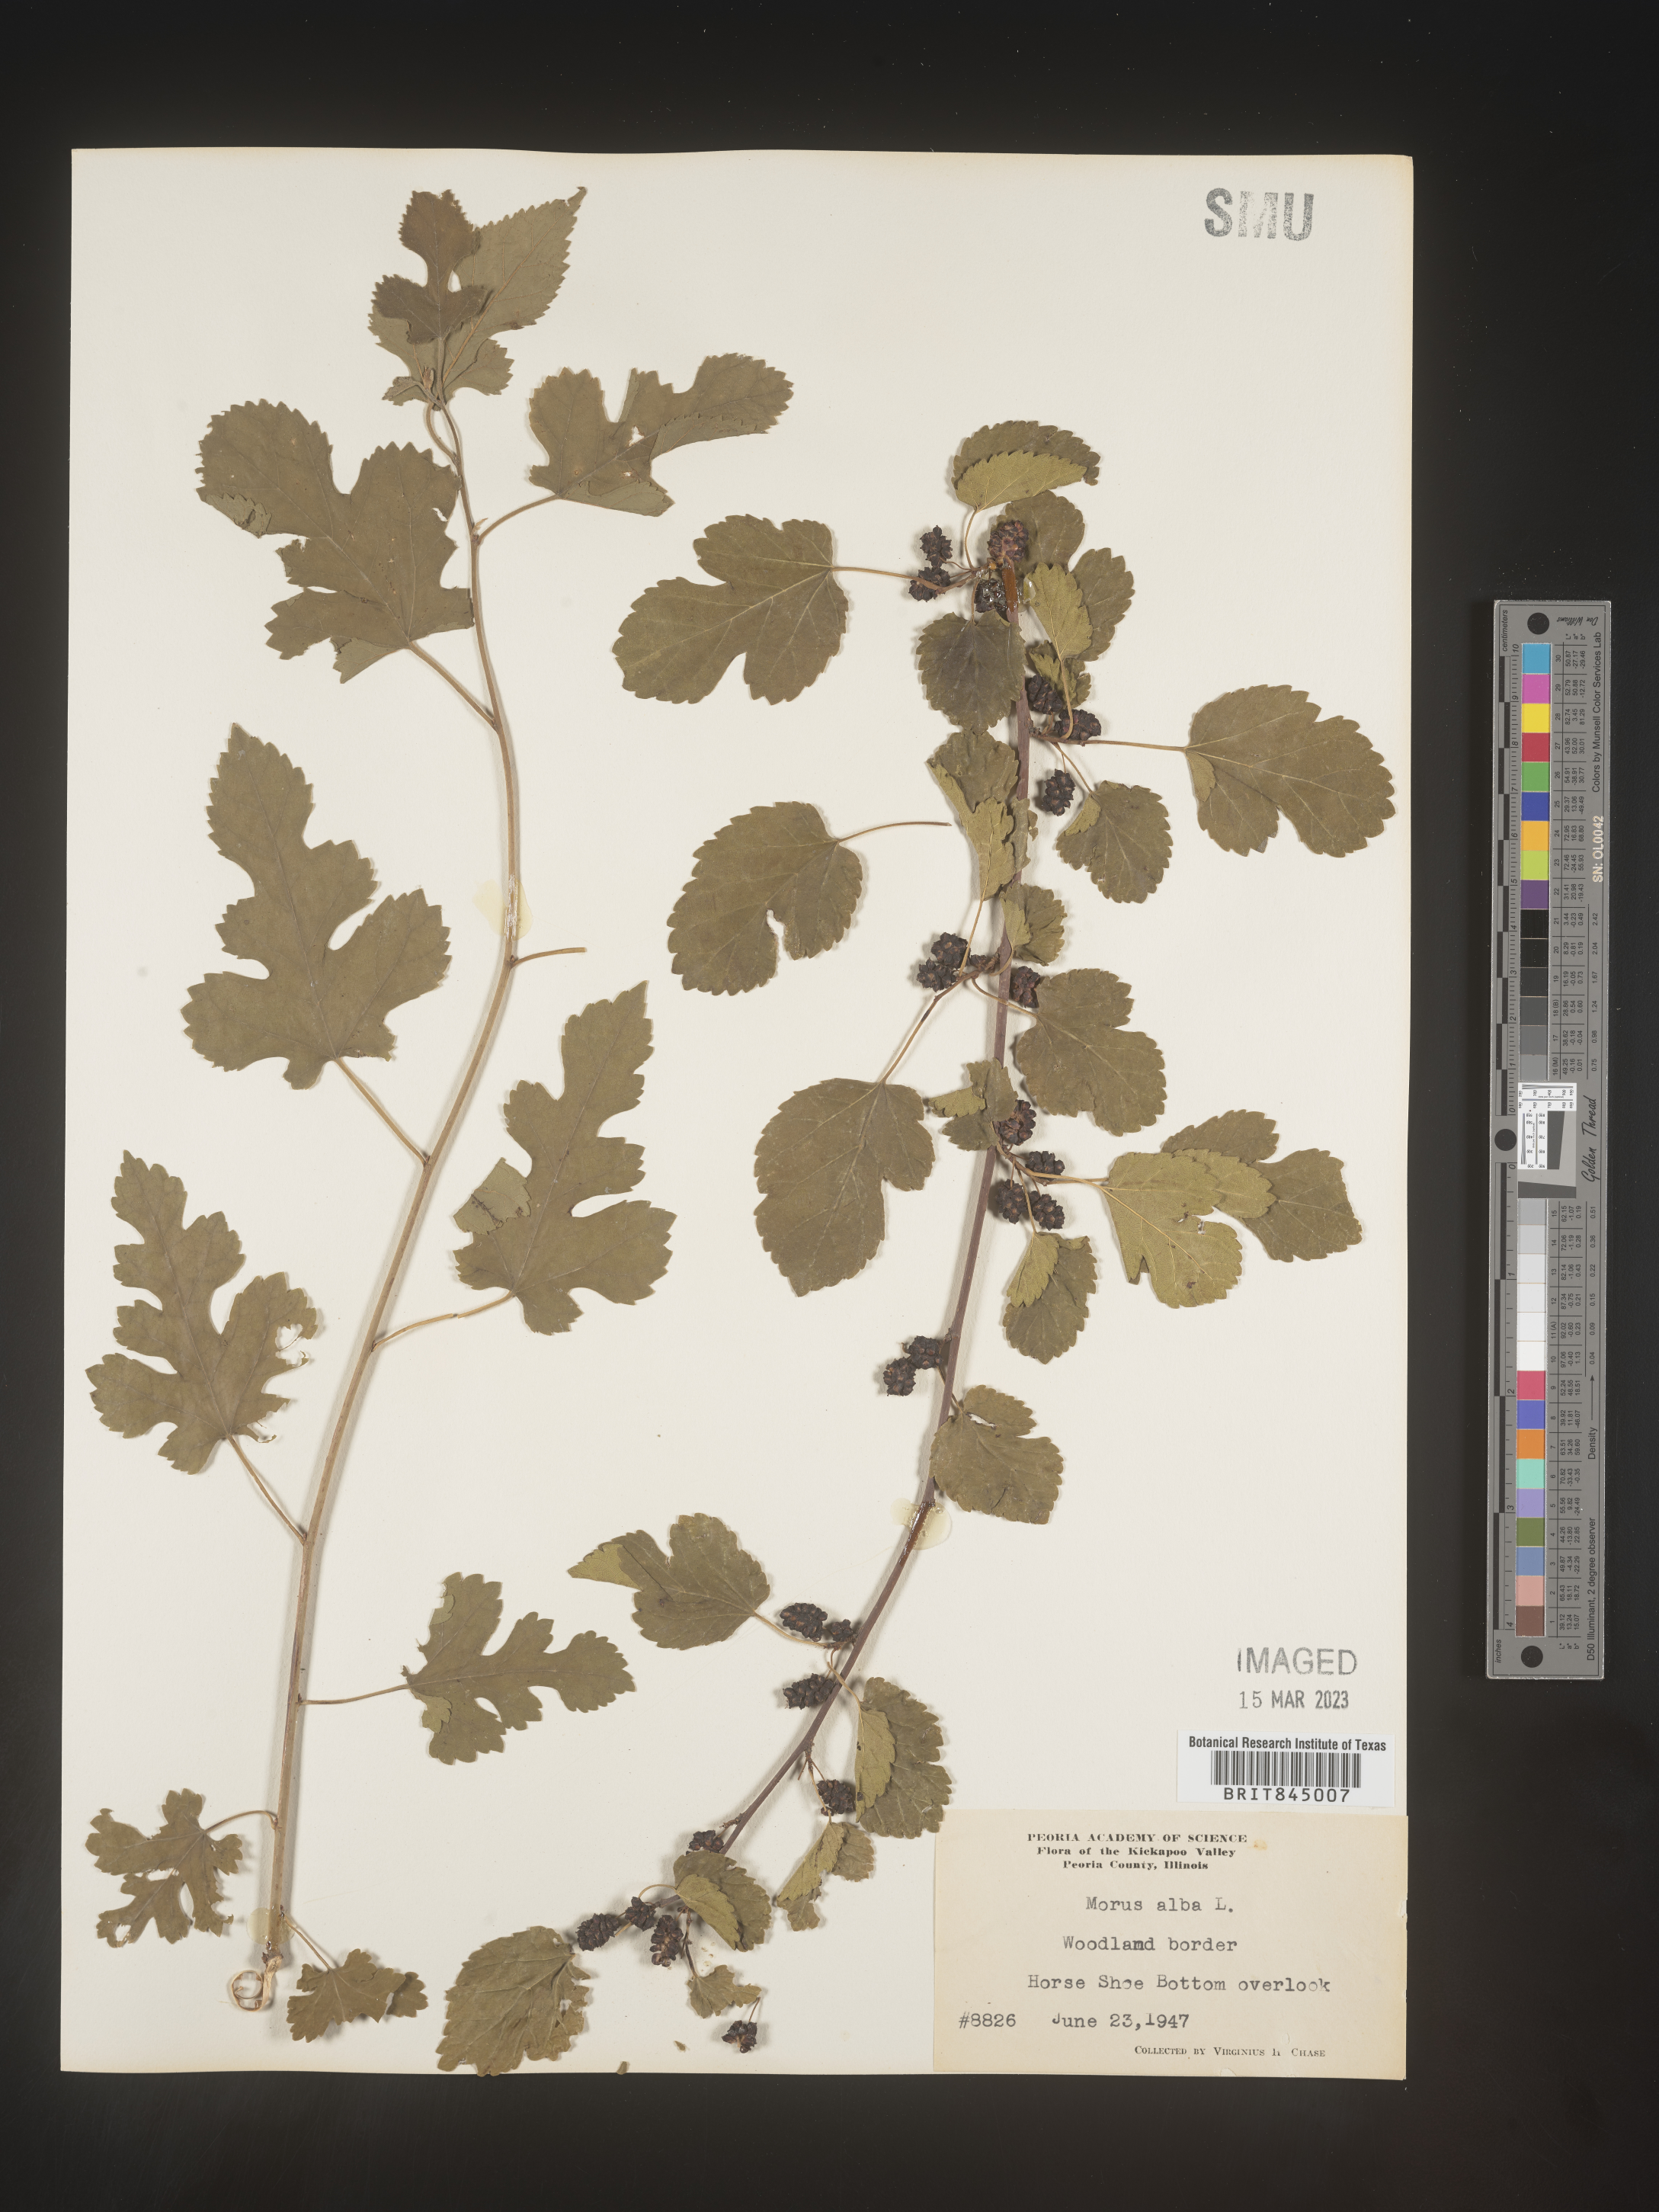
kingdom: Plantae
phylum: Tracheophyta
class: Magnoliopsida
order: Rosales
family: Moraceae
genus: Morus
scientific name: Morus alba
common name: White mulberry
